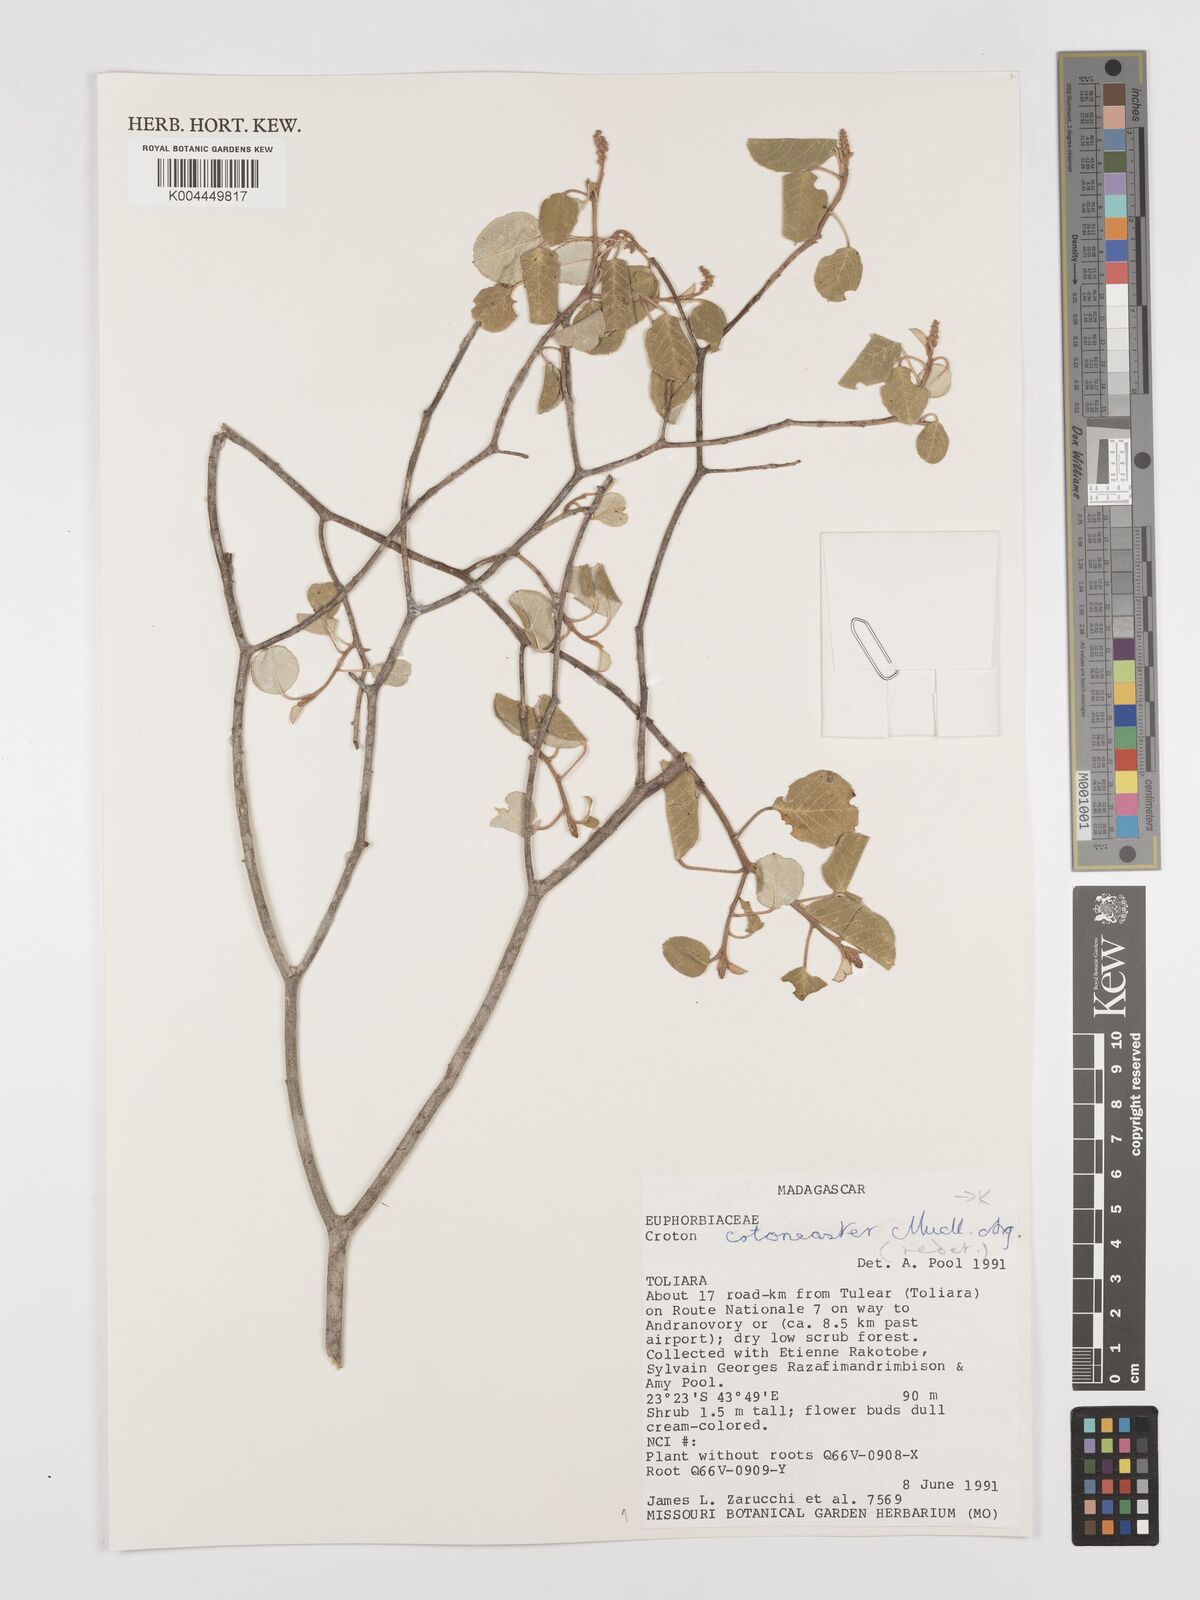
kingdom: Plantae
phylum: Tracheophyta
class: Magnoliopsida
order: Malpighiales
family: Euphorbiaceae
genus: Croton
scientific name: Croton cotoneaster
